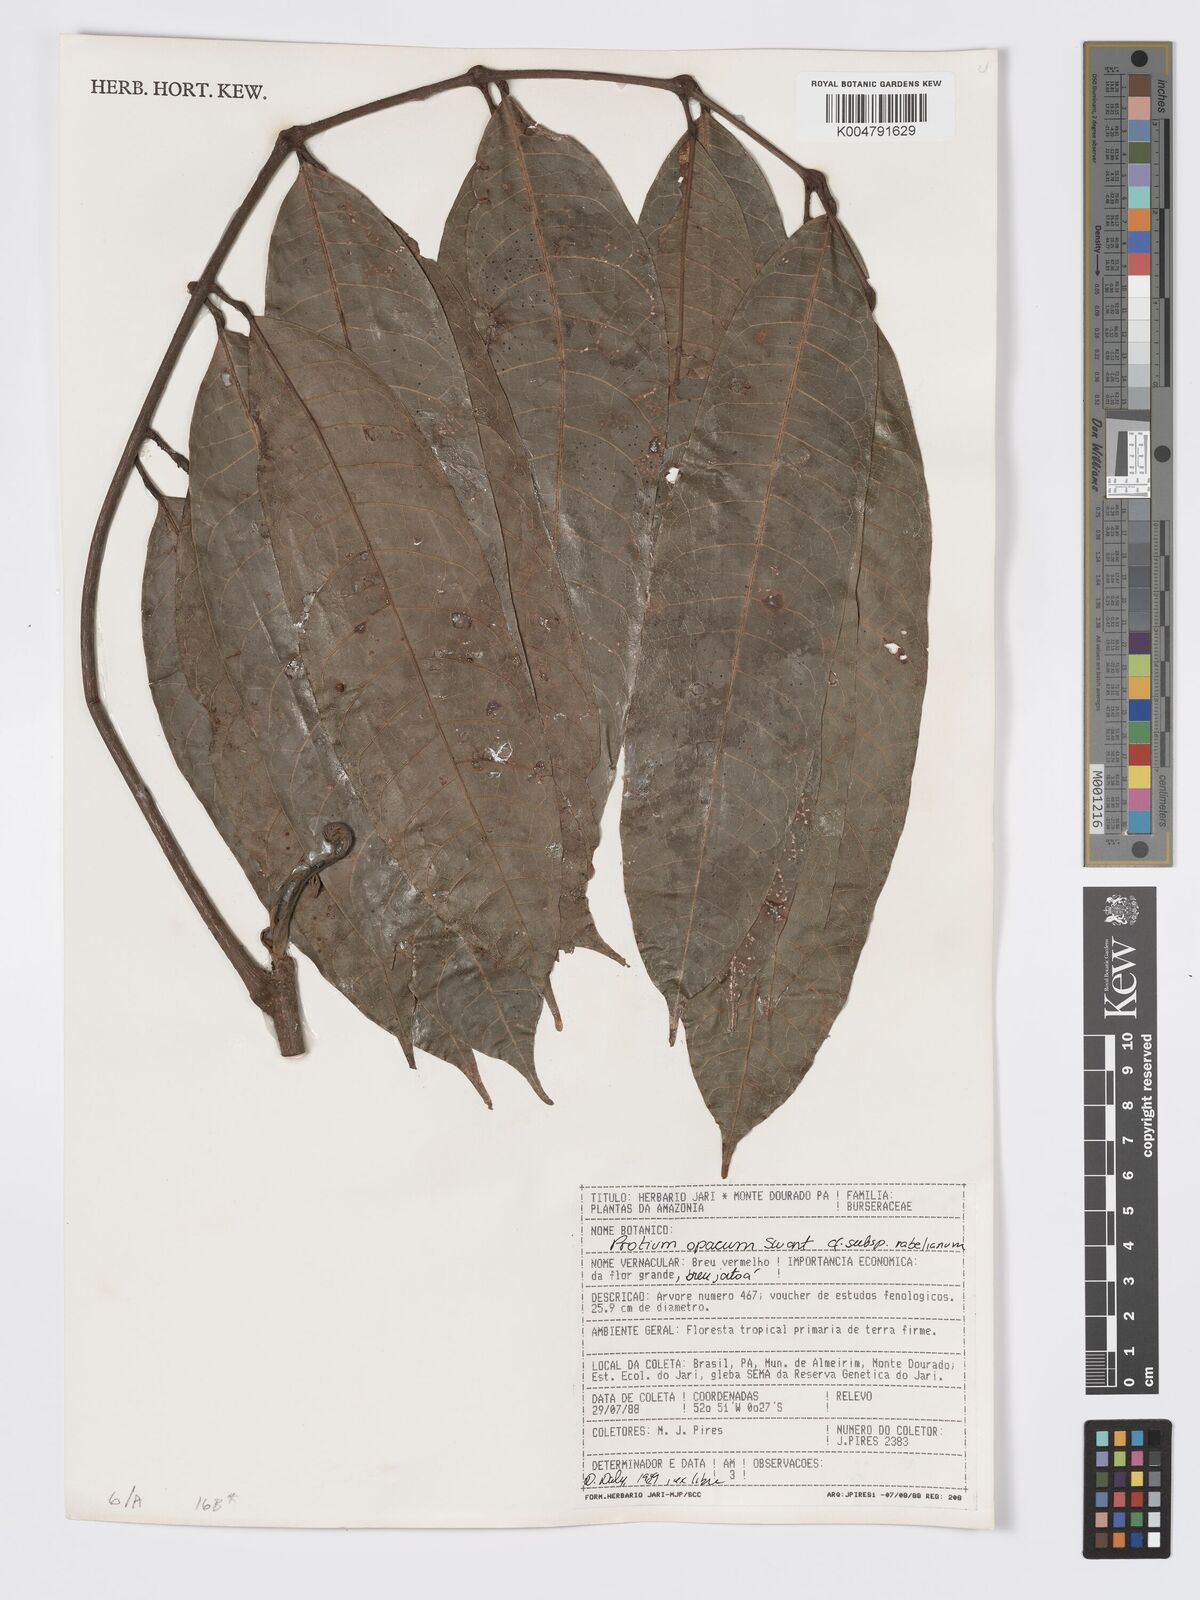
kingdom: Plantae
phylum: Tracheophyta
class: Magnoliopsida
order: Sapindales
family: Burseraceae
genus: Protium
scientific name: Protium opacum
